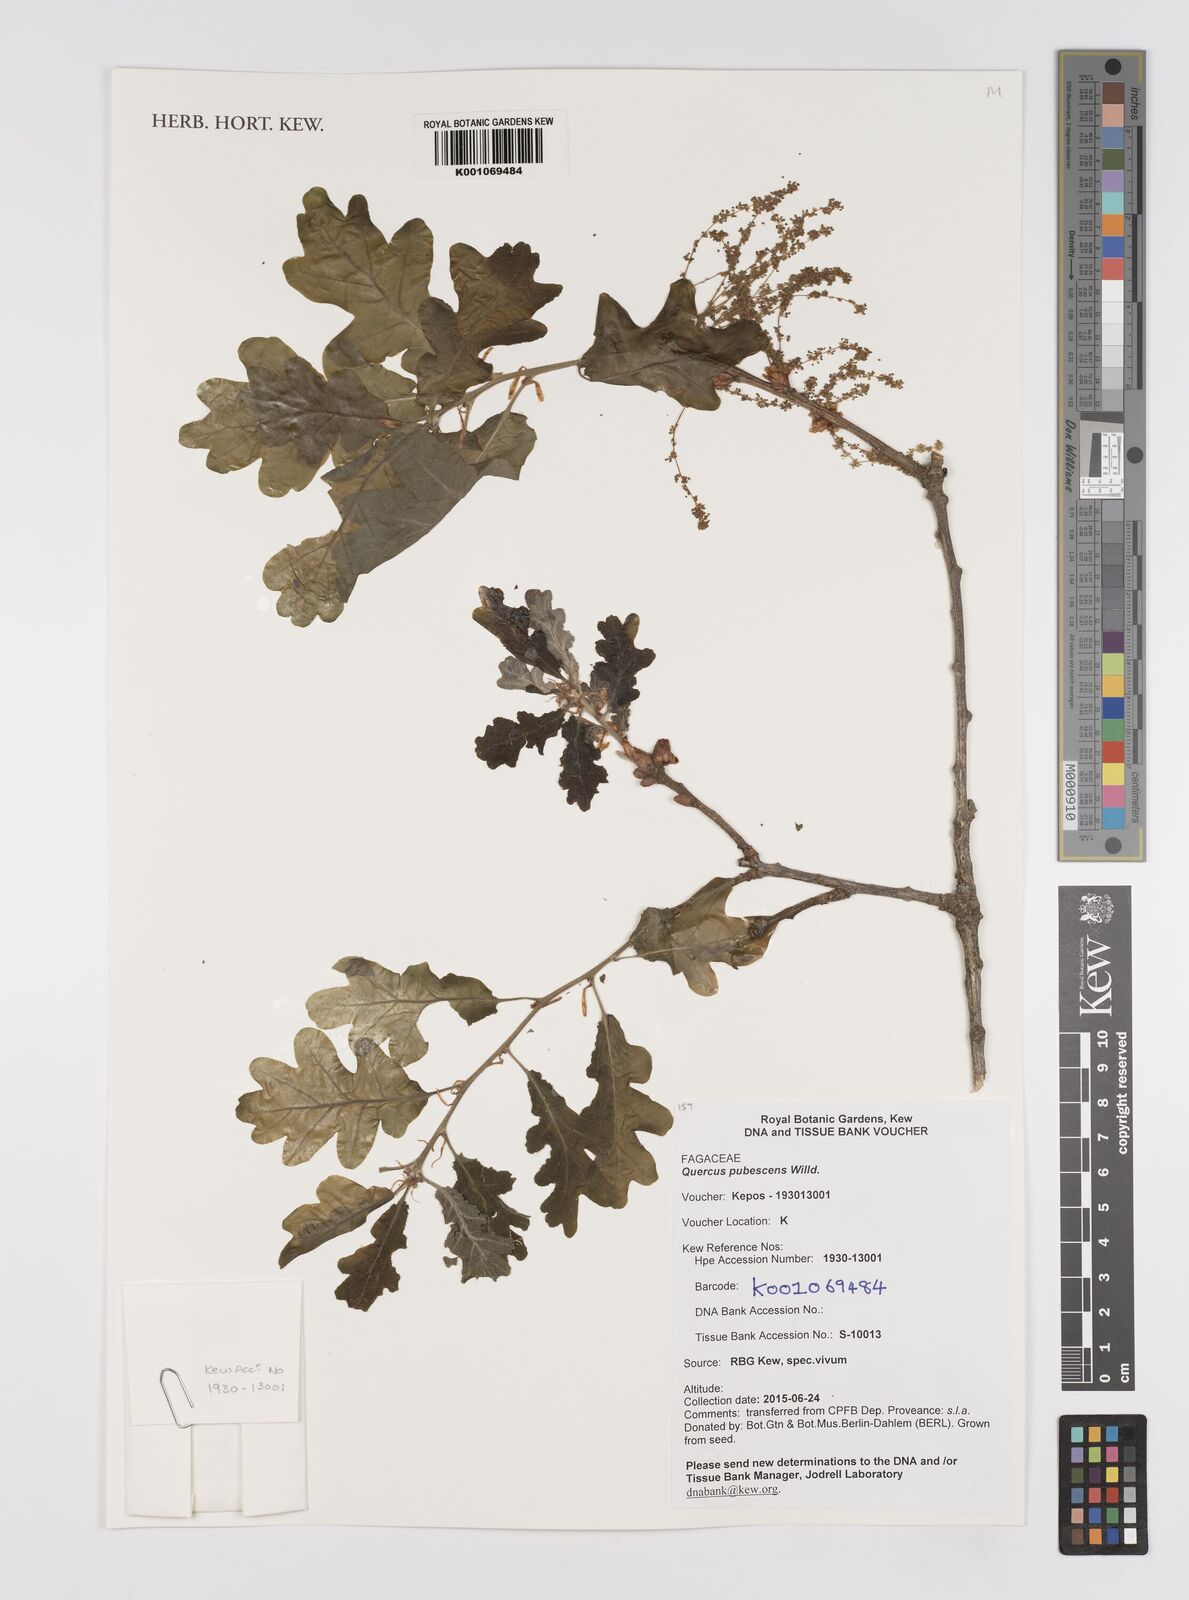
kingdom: Plantae
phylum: Tracheophyta
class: Magnoliopsida
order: Fagales
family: Fagaceae
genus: Quercus
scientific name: Quercus pubescens
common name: Downy oak
